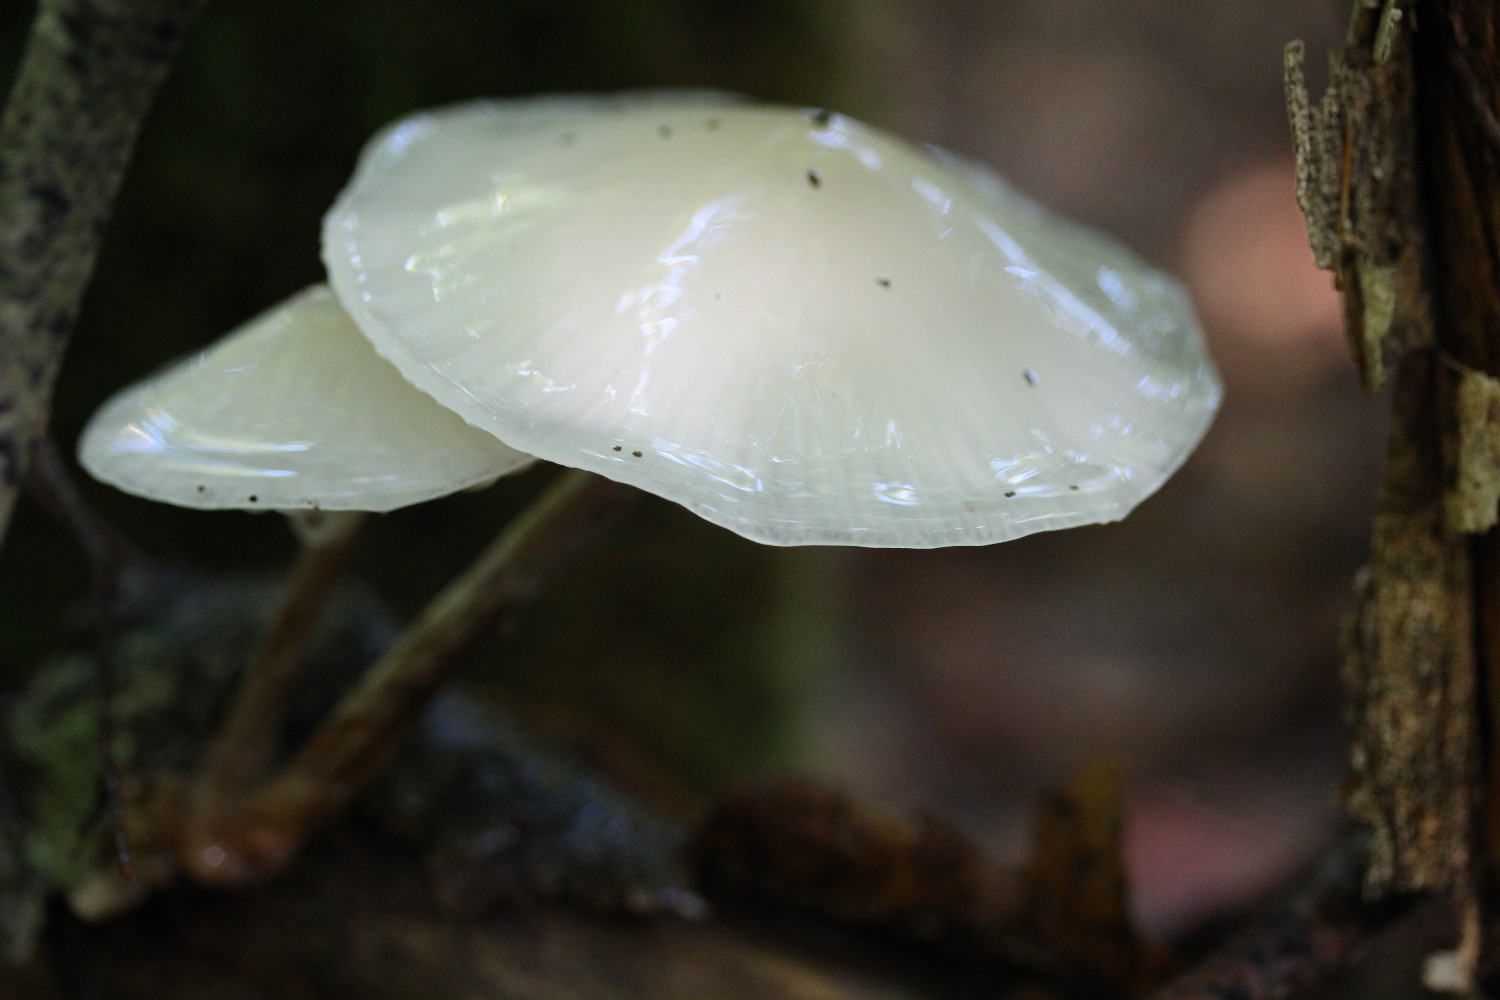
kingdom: Fungi
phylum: Basidiomycota
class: Agaricomycetes
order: Agaricales
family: Physalacriaceae
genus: Mucidula
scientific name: Mucidula mucida
